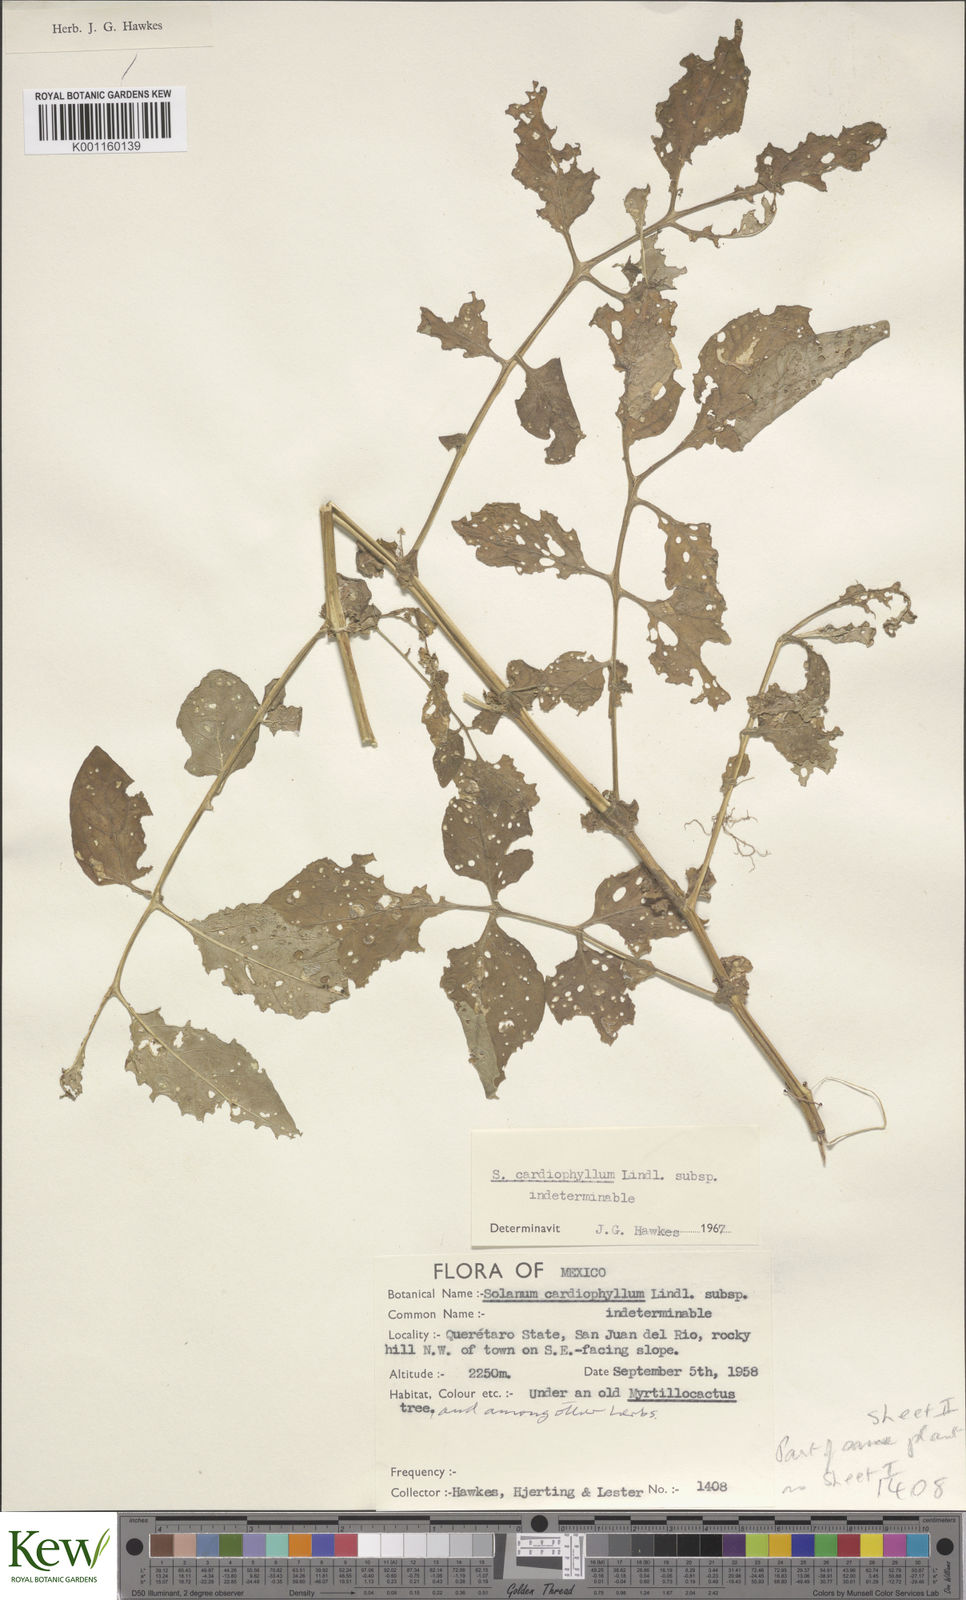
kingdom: Plantae
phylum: Tracheophyta
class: Magnoliopsida
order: Solanales
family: Solanaceae
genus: Solanum
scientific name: Solanum cardiophyllum
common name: Heartleaf horsenettle
